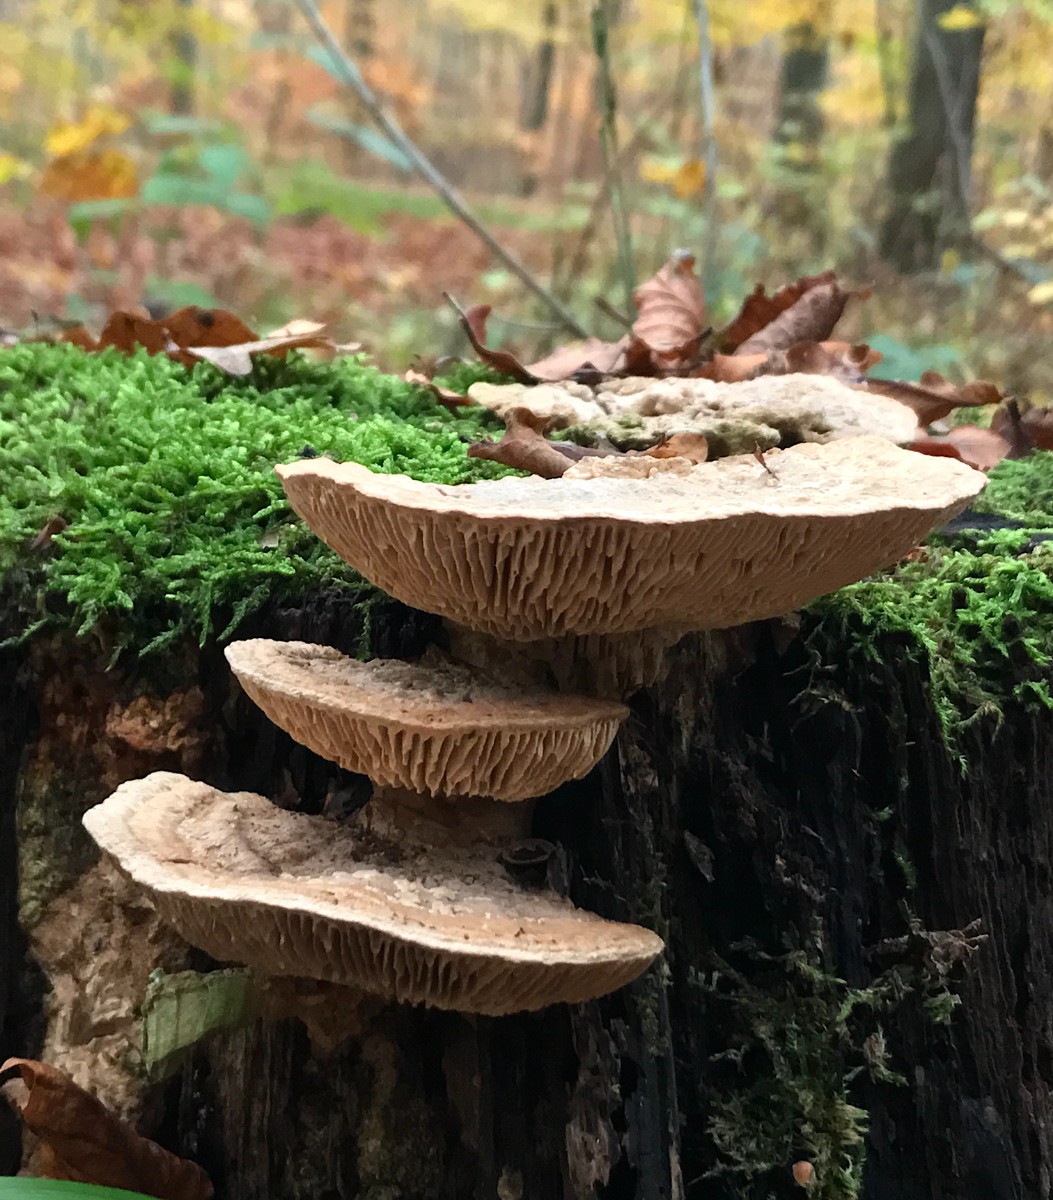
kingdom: Fungi
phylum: Basidiomycota
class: Agaricomycetes
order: Polyporales
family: Fomitopsidaceae
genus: Daedalea
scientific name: Daedalea quercina
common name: ege-labyrintsvamp
